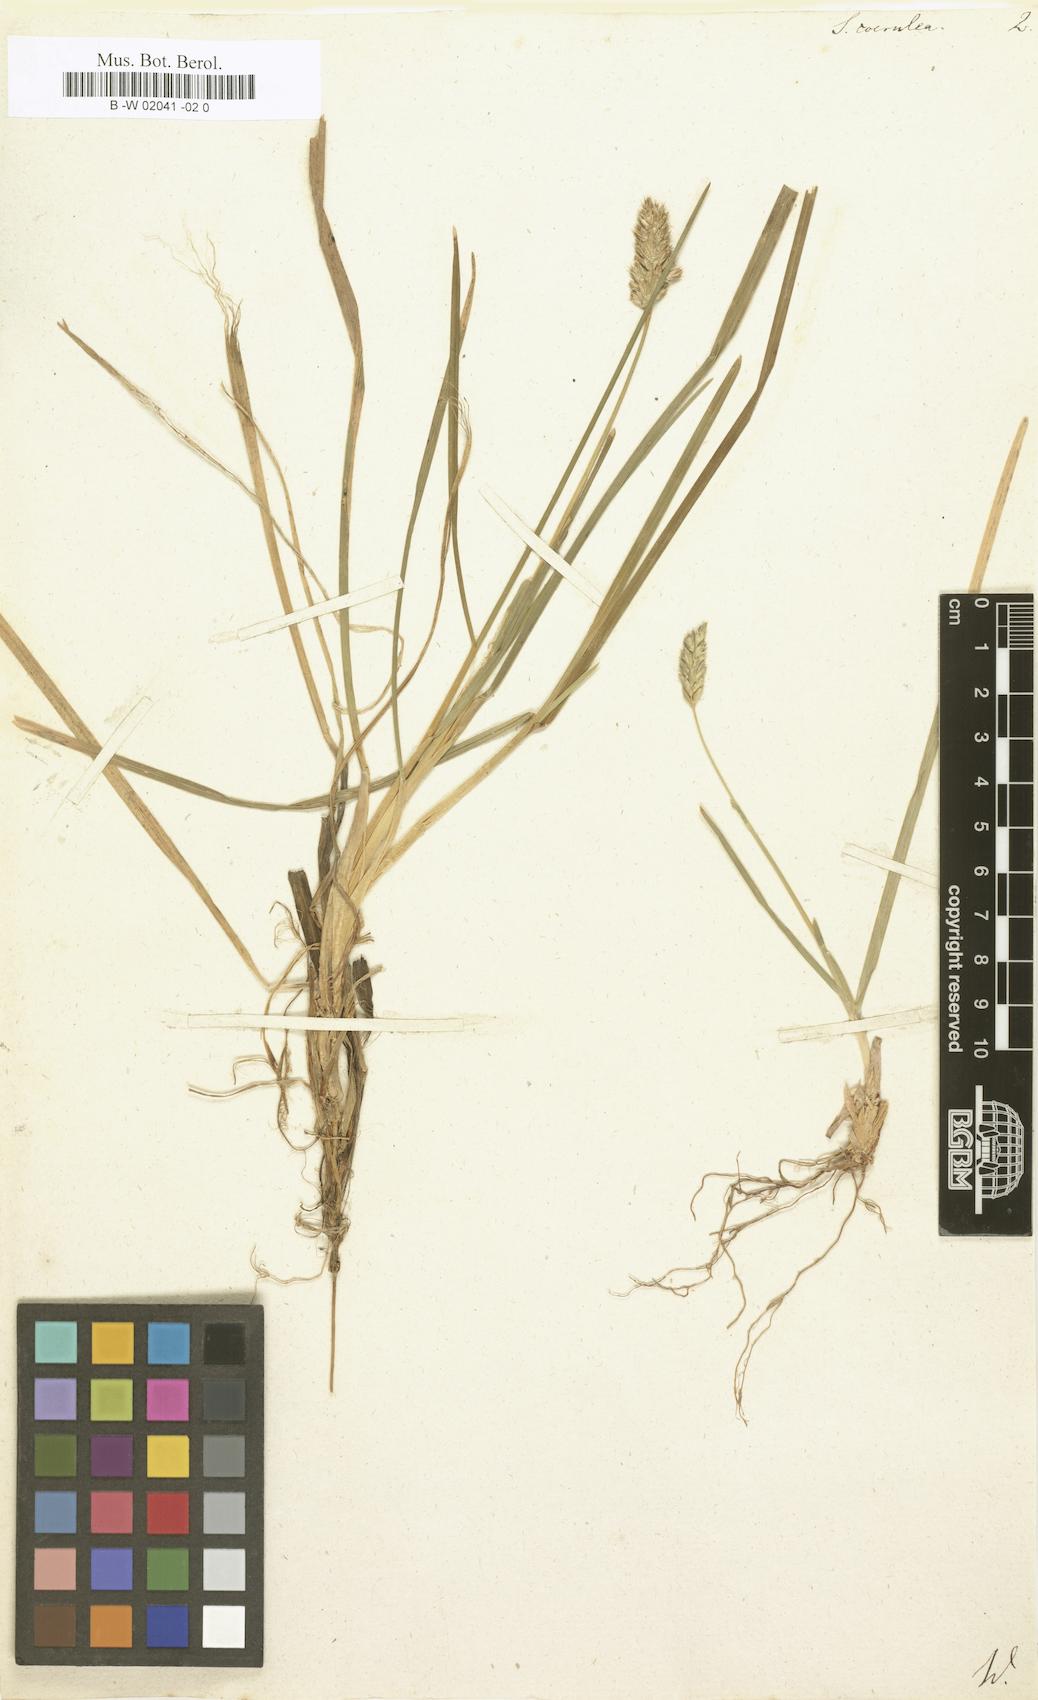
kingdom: Plantae
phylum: Tracheophyta
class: Liliopsida
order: Poales
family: Poaceae
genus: Sesleria
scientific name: Sesleria caerulea
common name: Blue moor-grass
